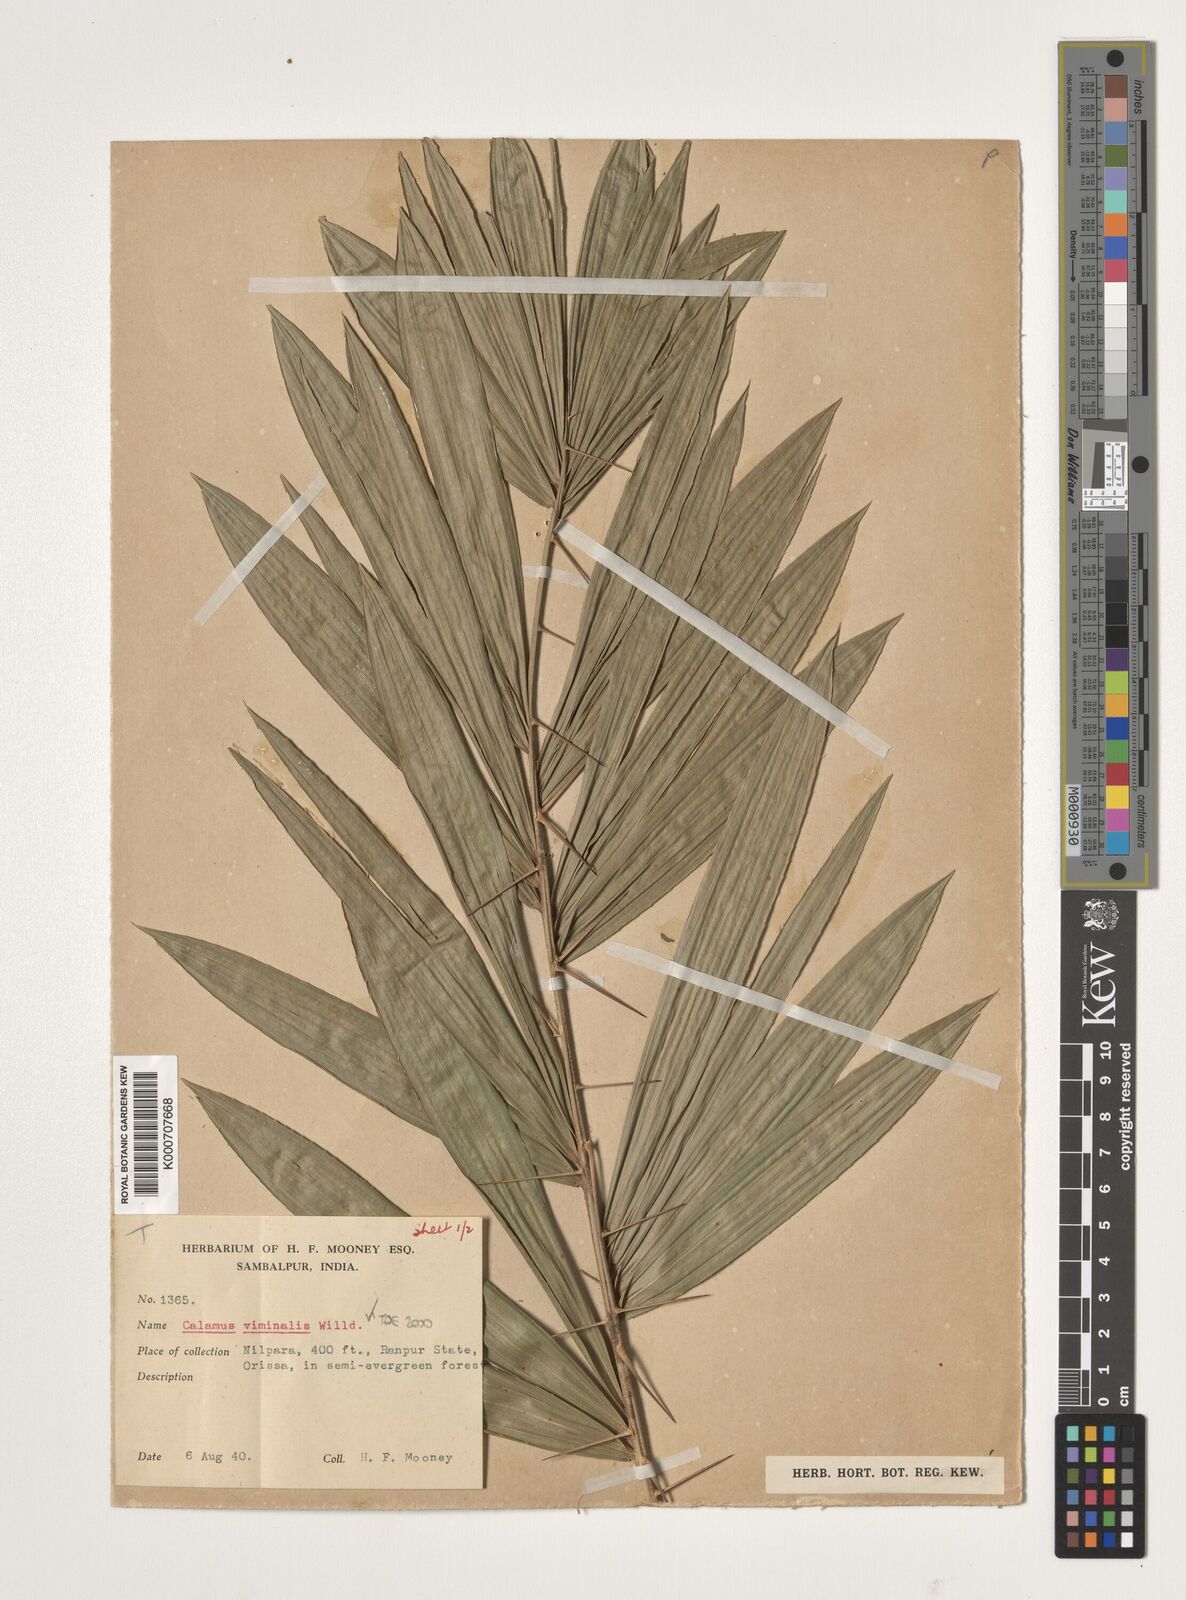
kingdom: Plantae
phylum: Tracheophyta
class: Liliopsida
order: Arecales
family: Arecaceae
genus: Calamus
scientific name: Calamus viminalis
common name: Osier-like rattan palm
